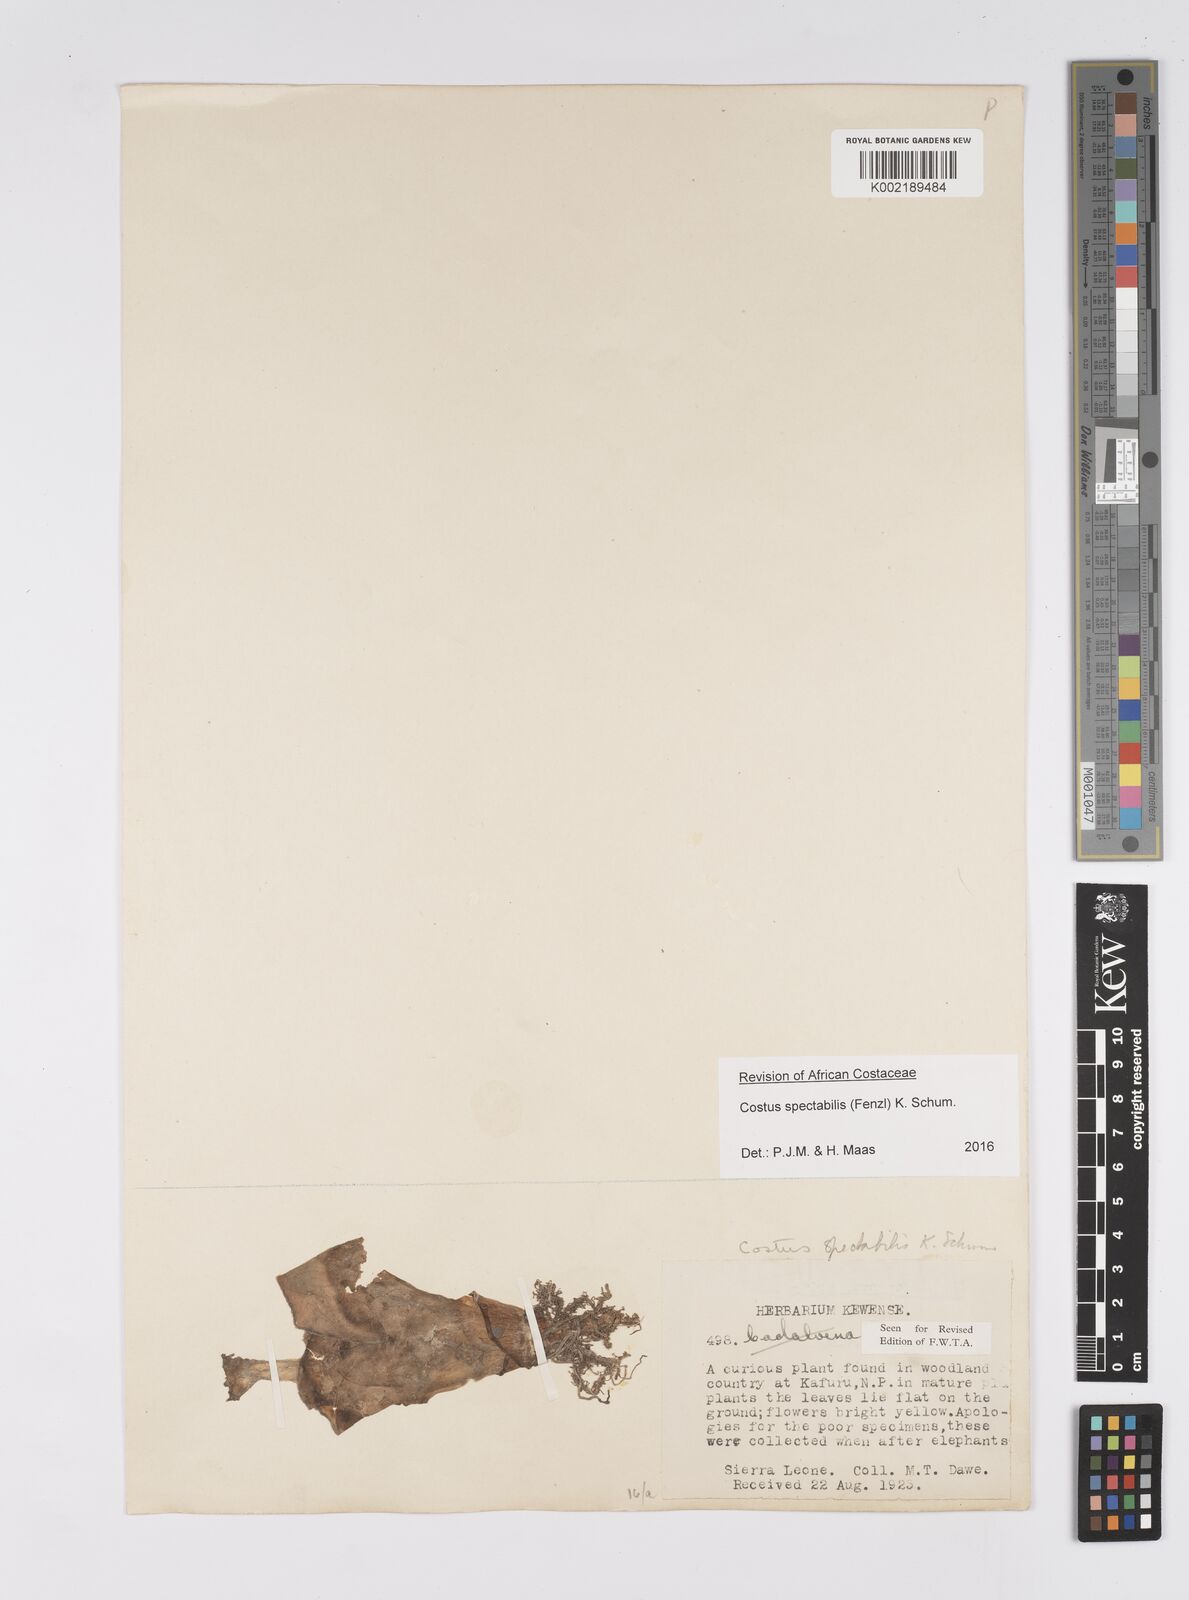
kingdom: Plantae
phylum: Tracheophyta
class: Liliopsida
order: Zingiberales
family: Costaceae
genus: Costus
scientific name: Costus spectabilis
